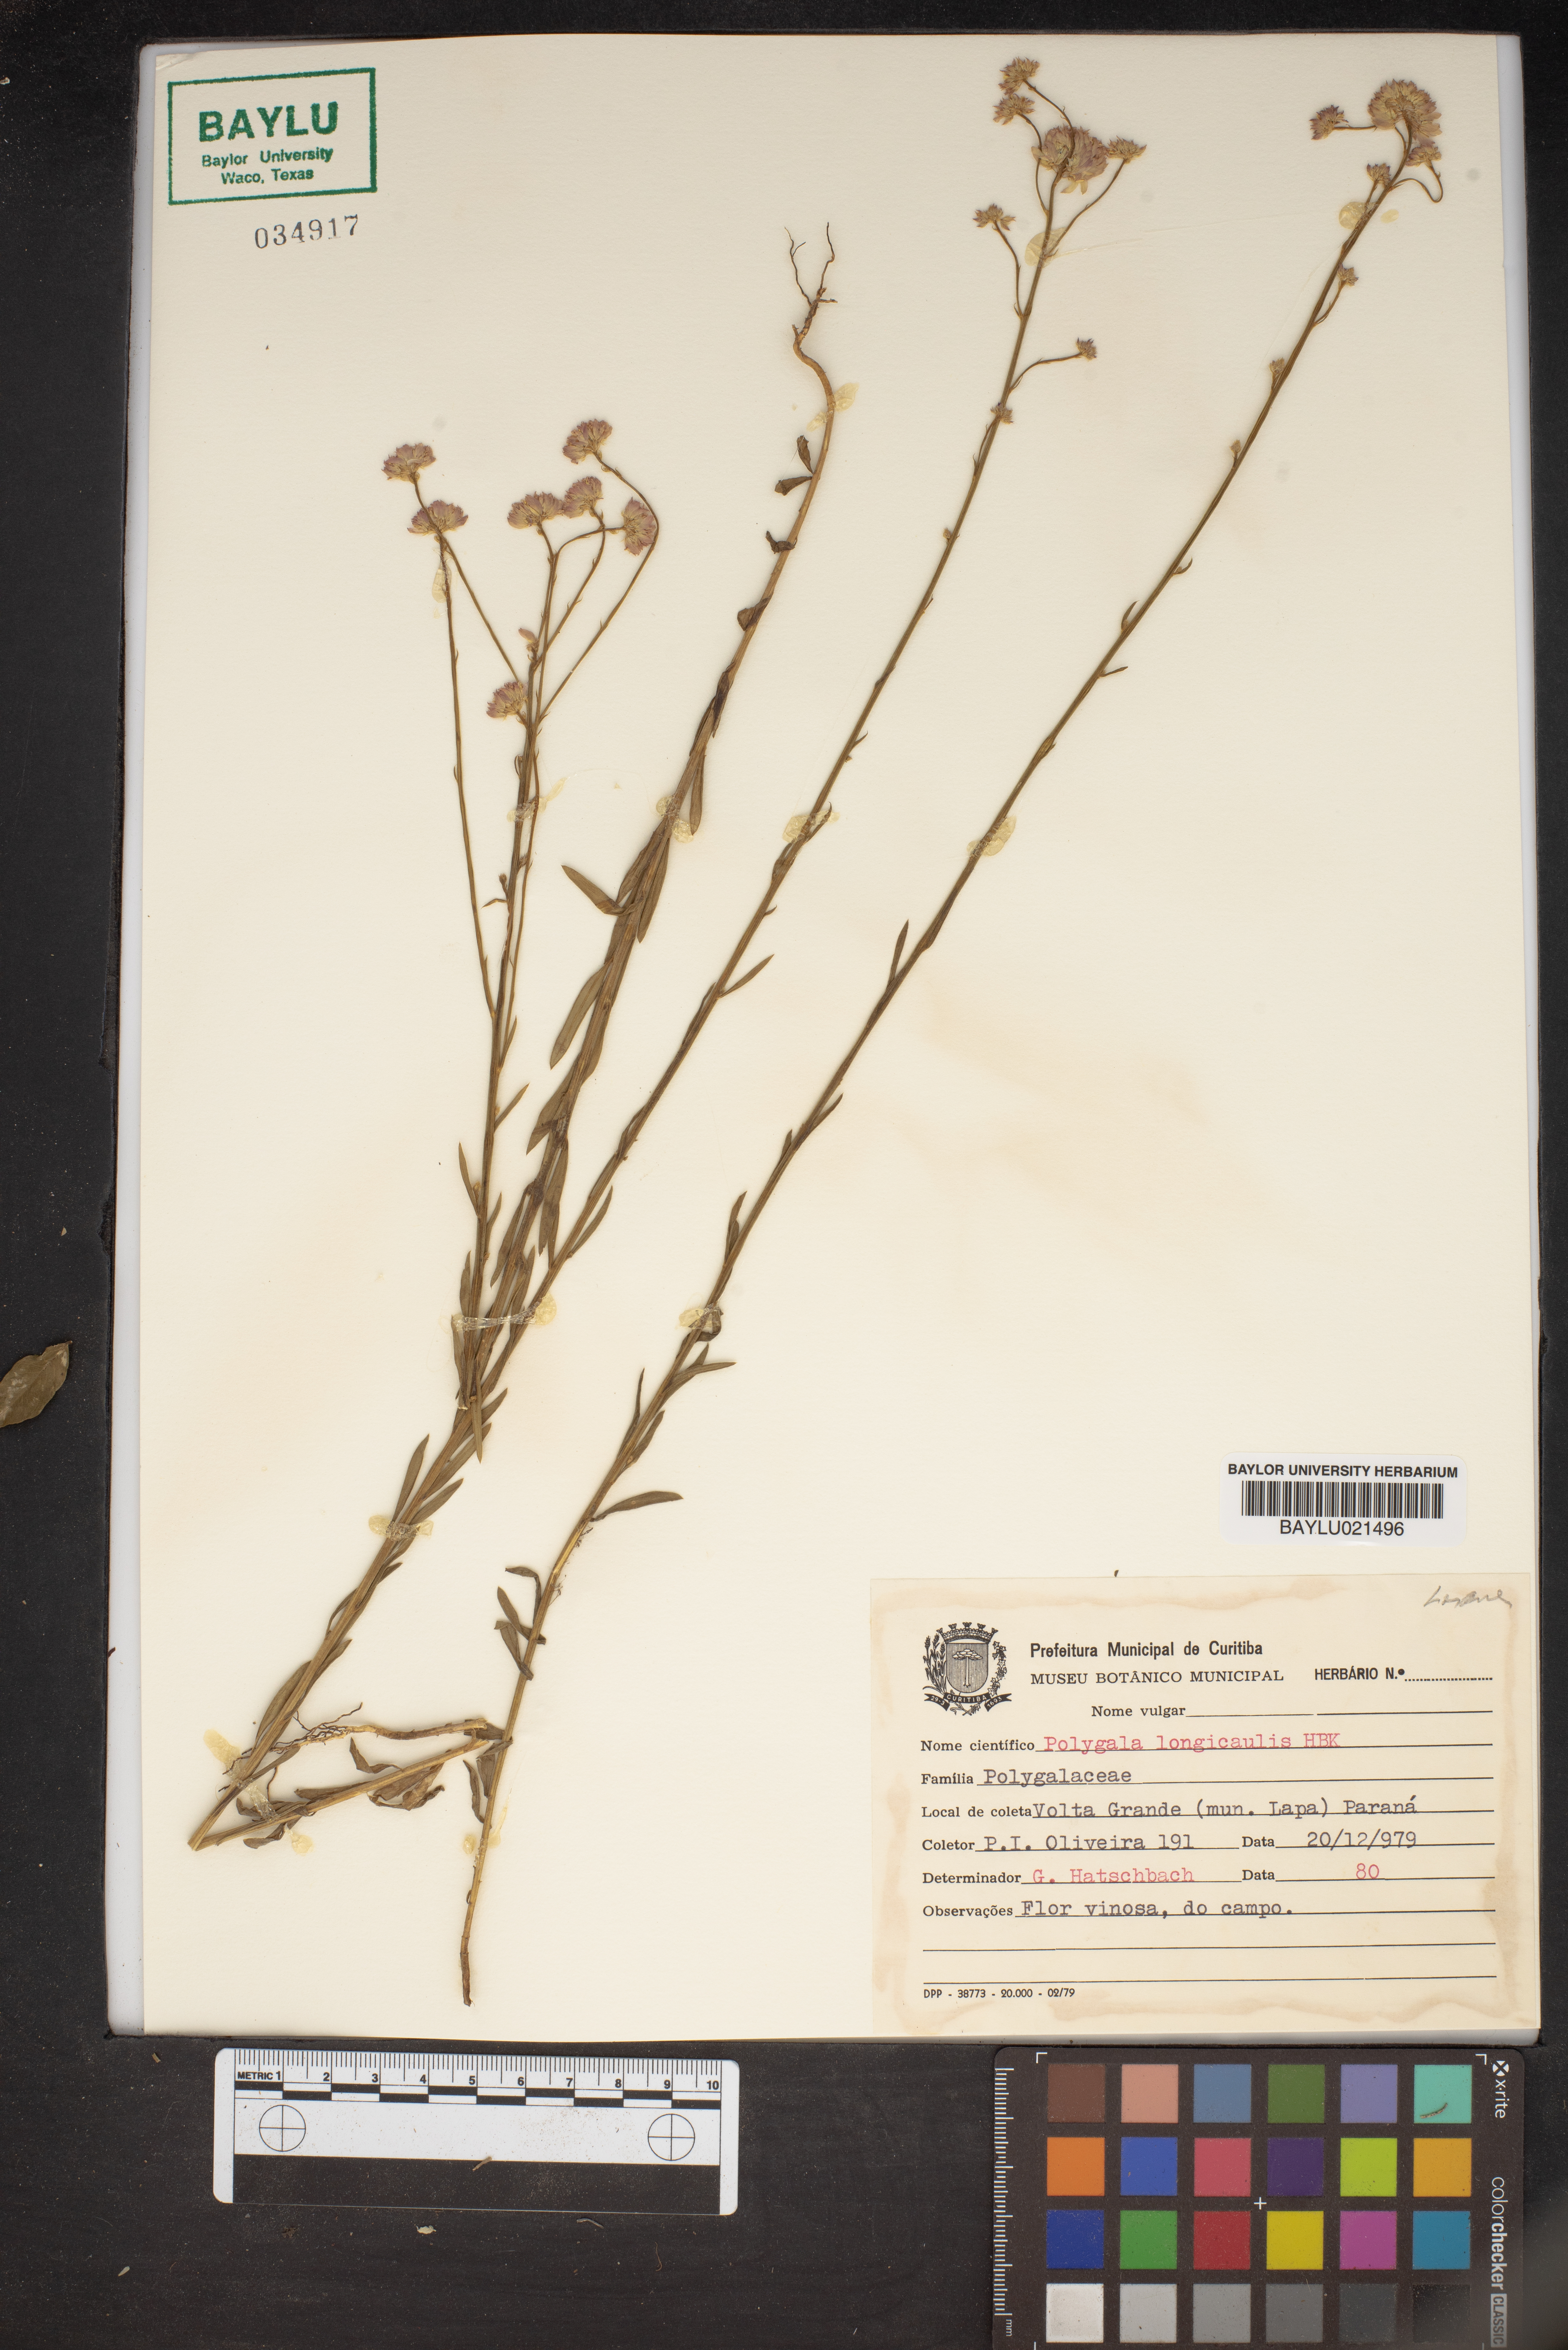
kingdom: Plantae
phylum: Tracheophyta
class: Magnoliopsida
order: Fabales
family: Polygalaceae
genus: Polygala
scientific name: Polygala longicaulis
